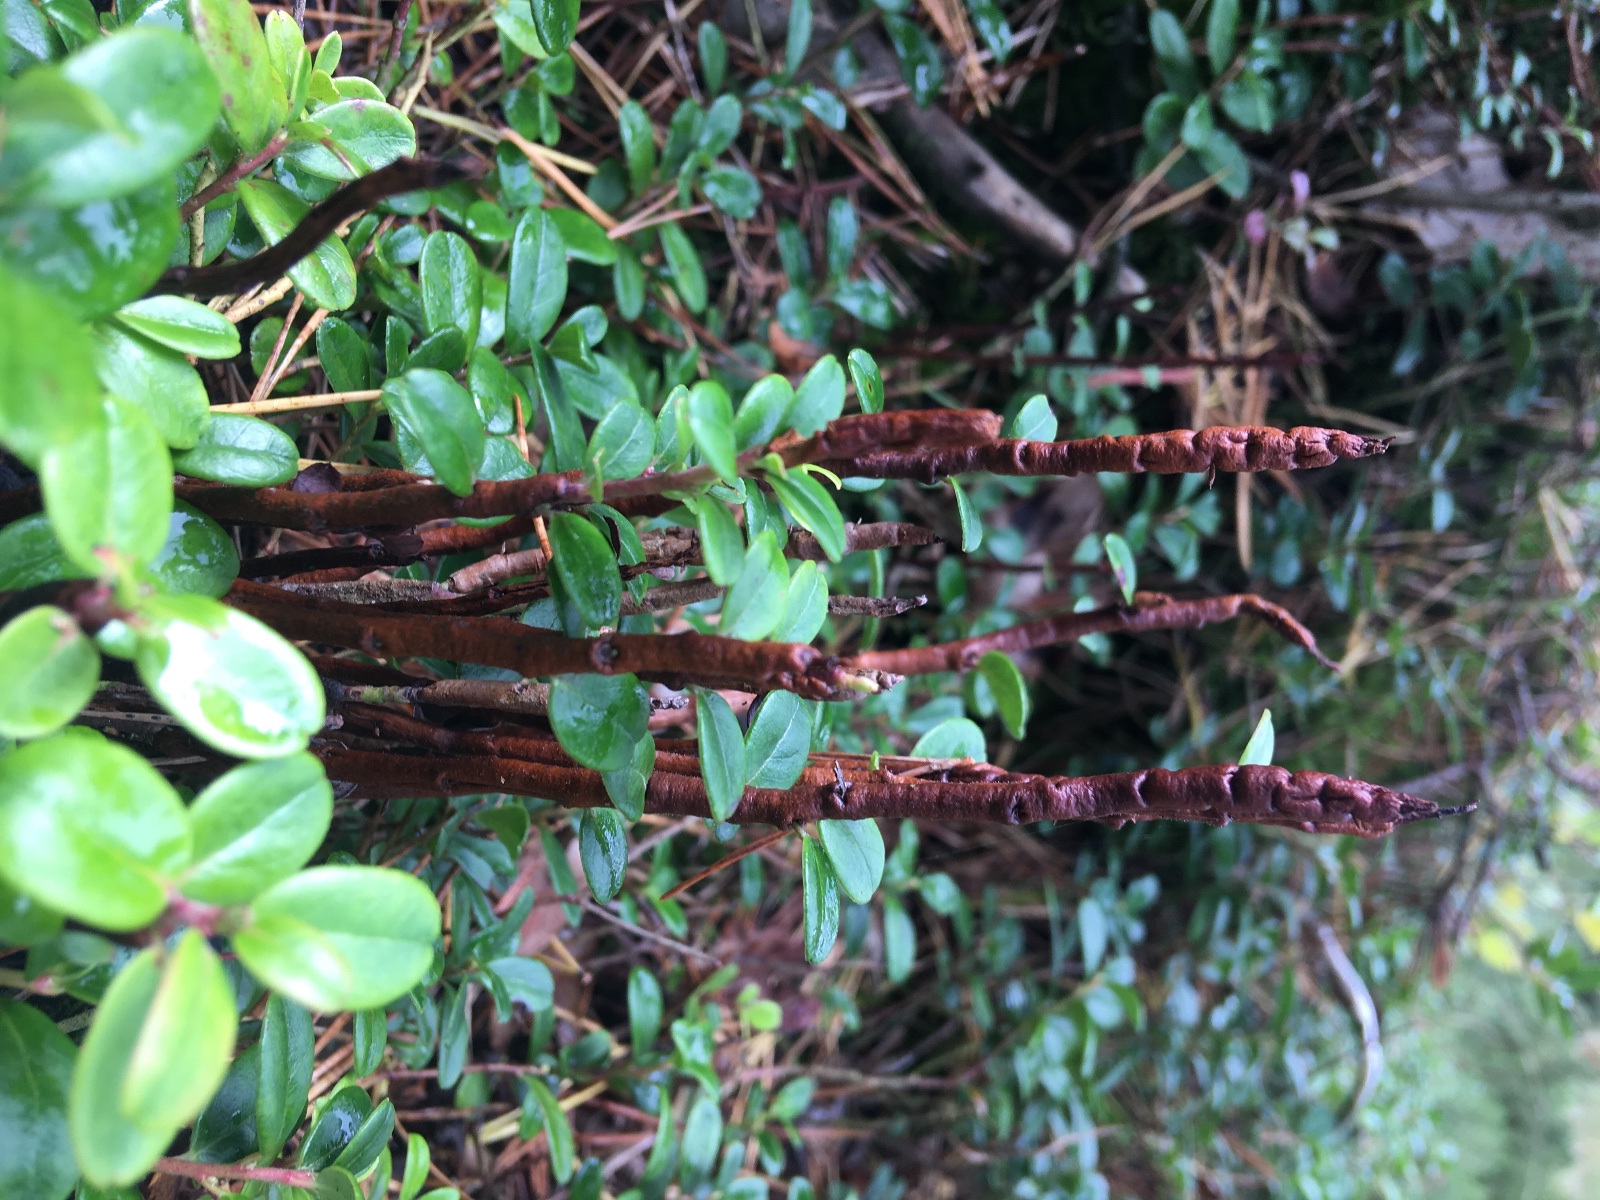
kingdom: Fungi
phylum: Basidiomycota
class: Pucciniomycetes
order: Pucciniales
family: Pucciniastraceae
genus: Calyptospora
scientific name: Calyptospora columnaris
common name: Huckleberry broom rust fungus
